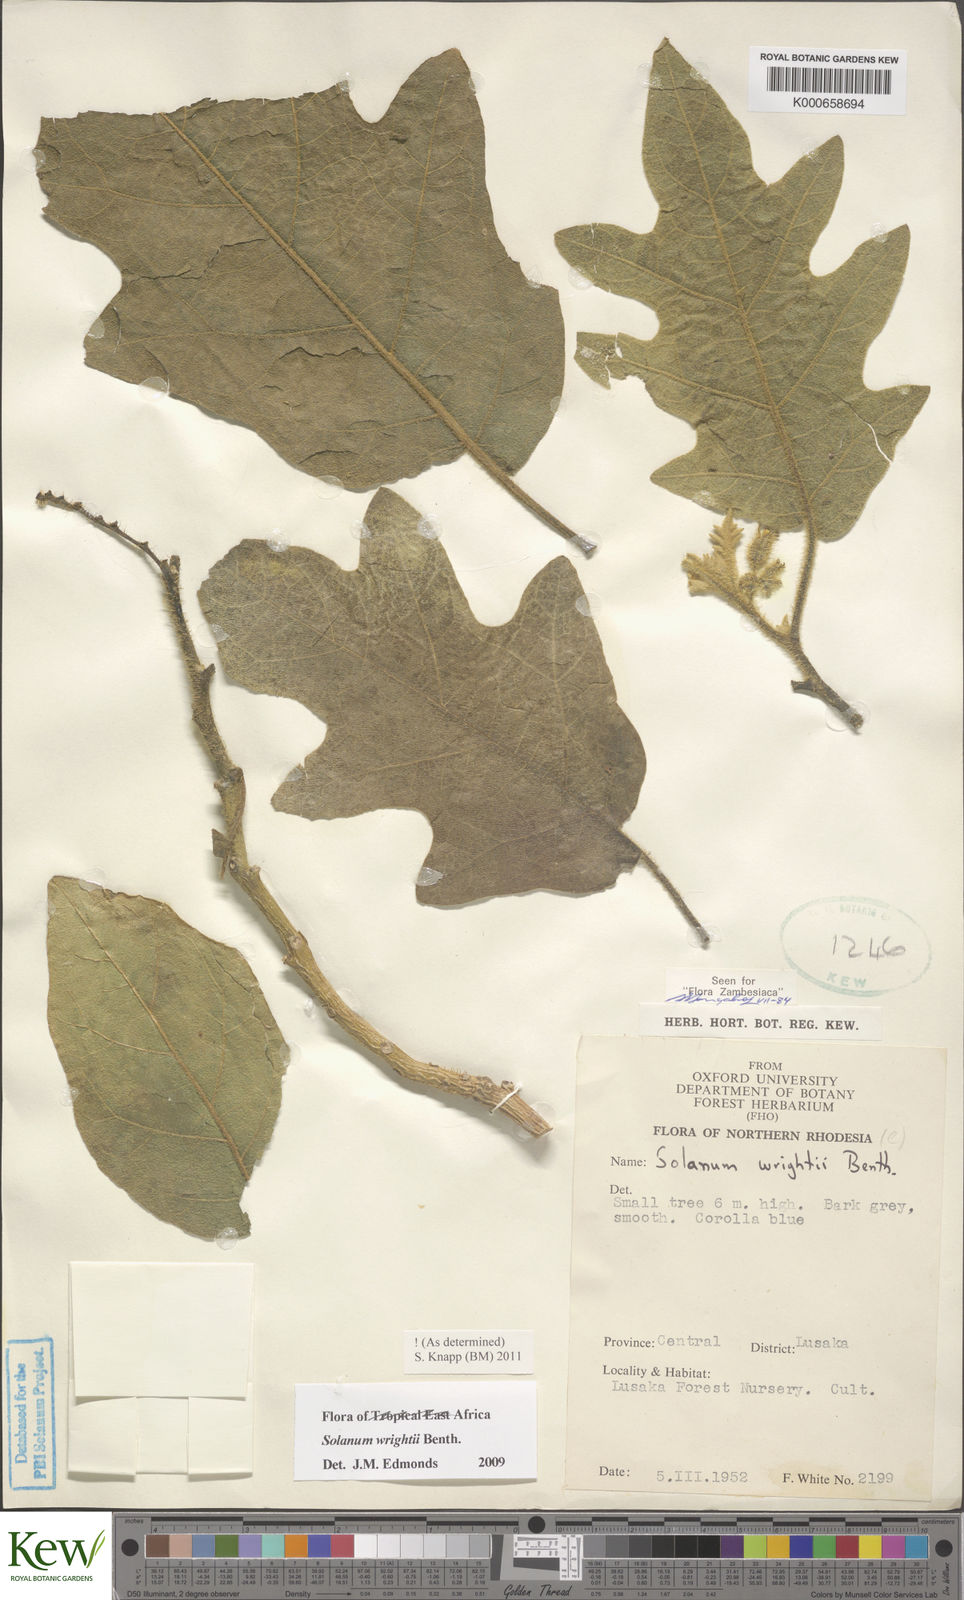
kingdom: Plantae
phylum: Tracheophyta
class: Magnoliopsida
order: Solanales
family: Solanaceae
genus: Solanum
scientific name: Solanum wrightii
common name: Brazilian potato-tree
